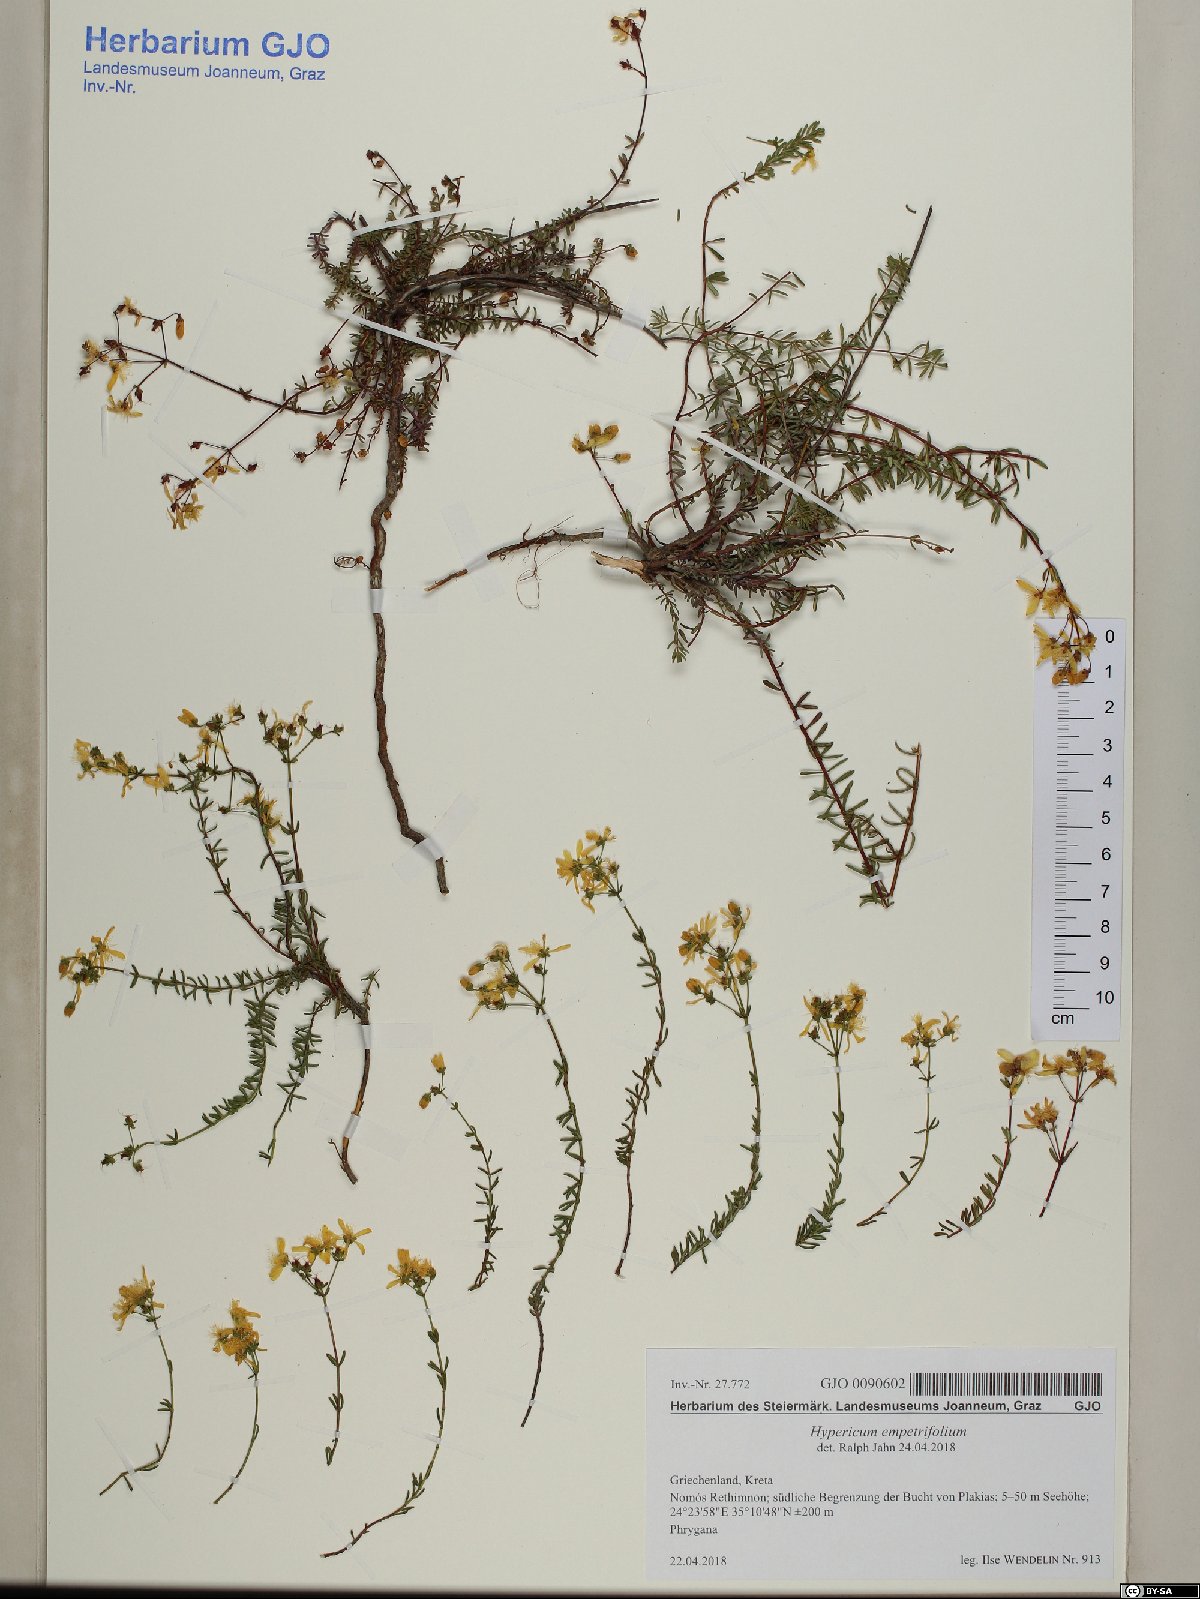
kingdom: Plantae
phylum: Tracheophyta
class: Magnoliopsida
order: Malpighiales
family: Hypericaceae
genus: Hypericum
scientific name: Hypericum empetrifolium
